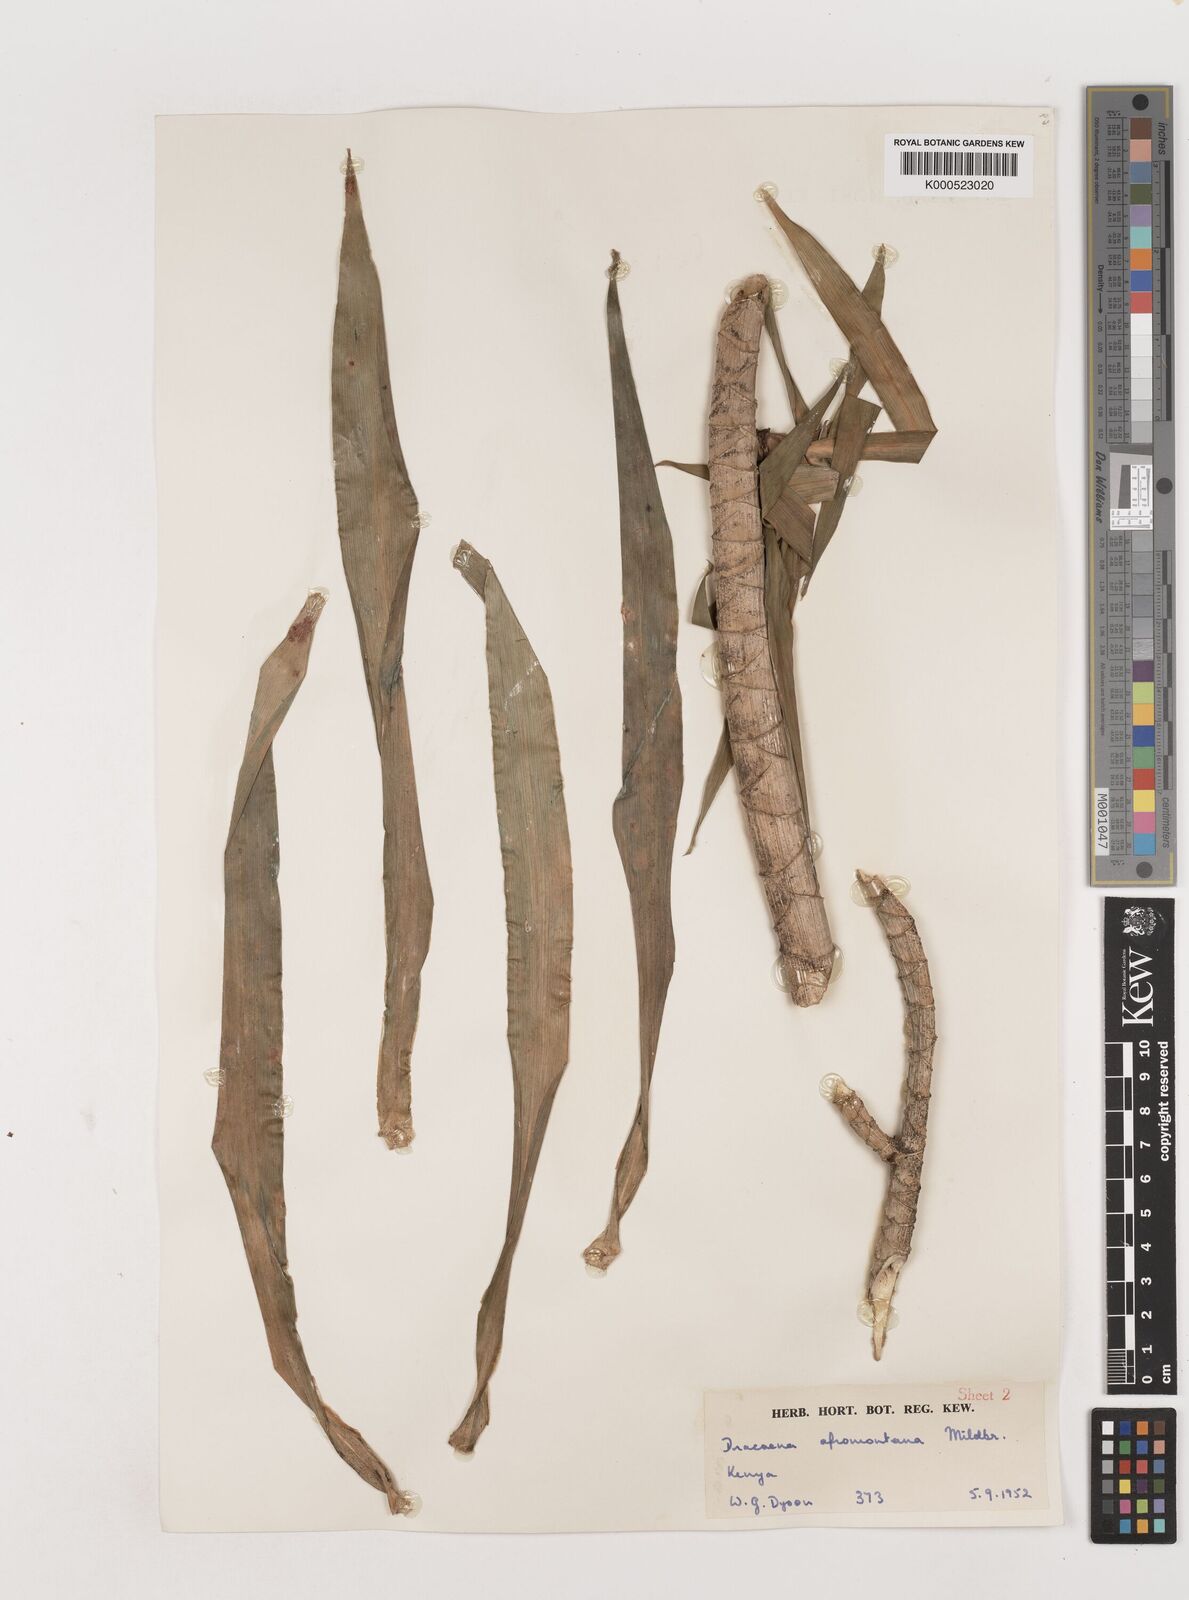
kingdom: Plantae
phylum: Tracheophyta
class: Liliopsida
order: Asparagales
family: Asparagaceae
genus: Dracaena
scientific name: Dracaena afromontana
